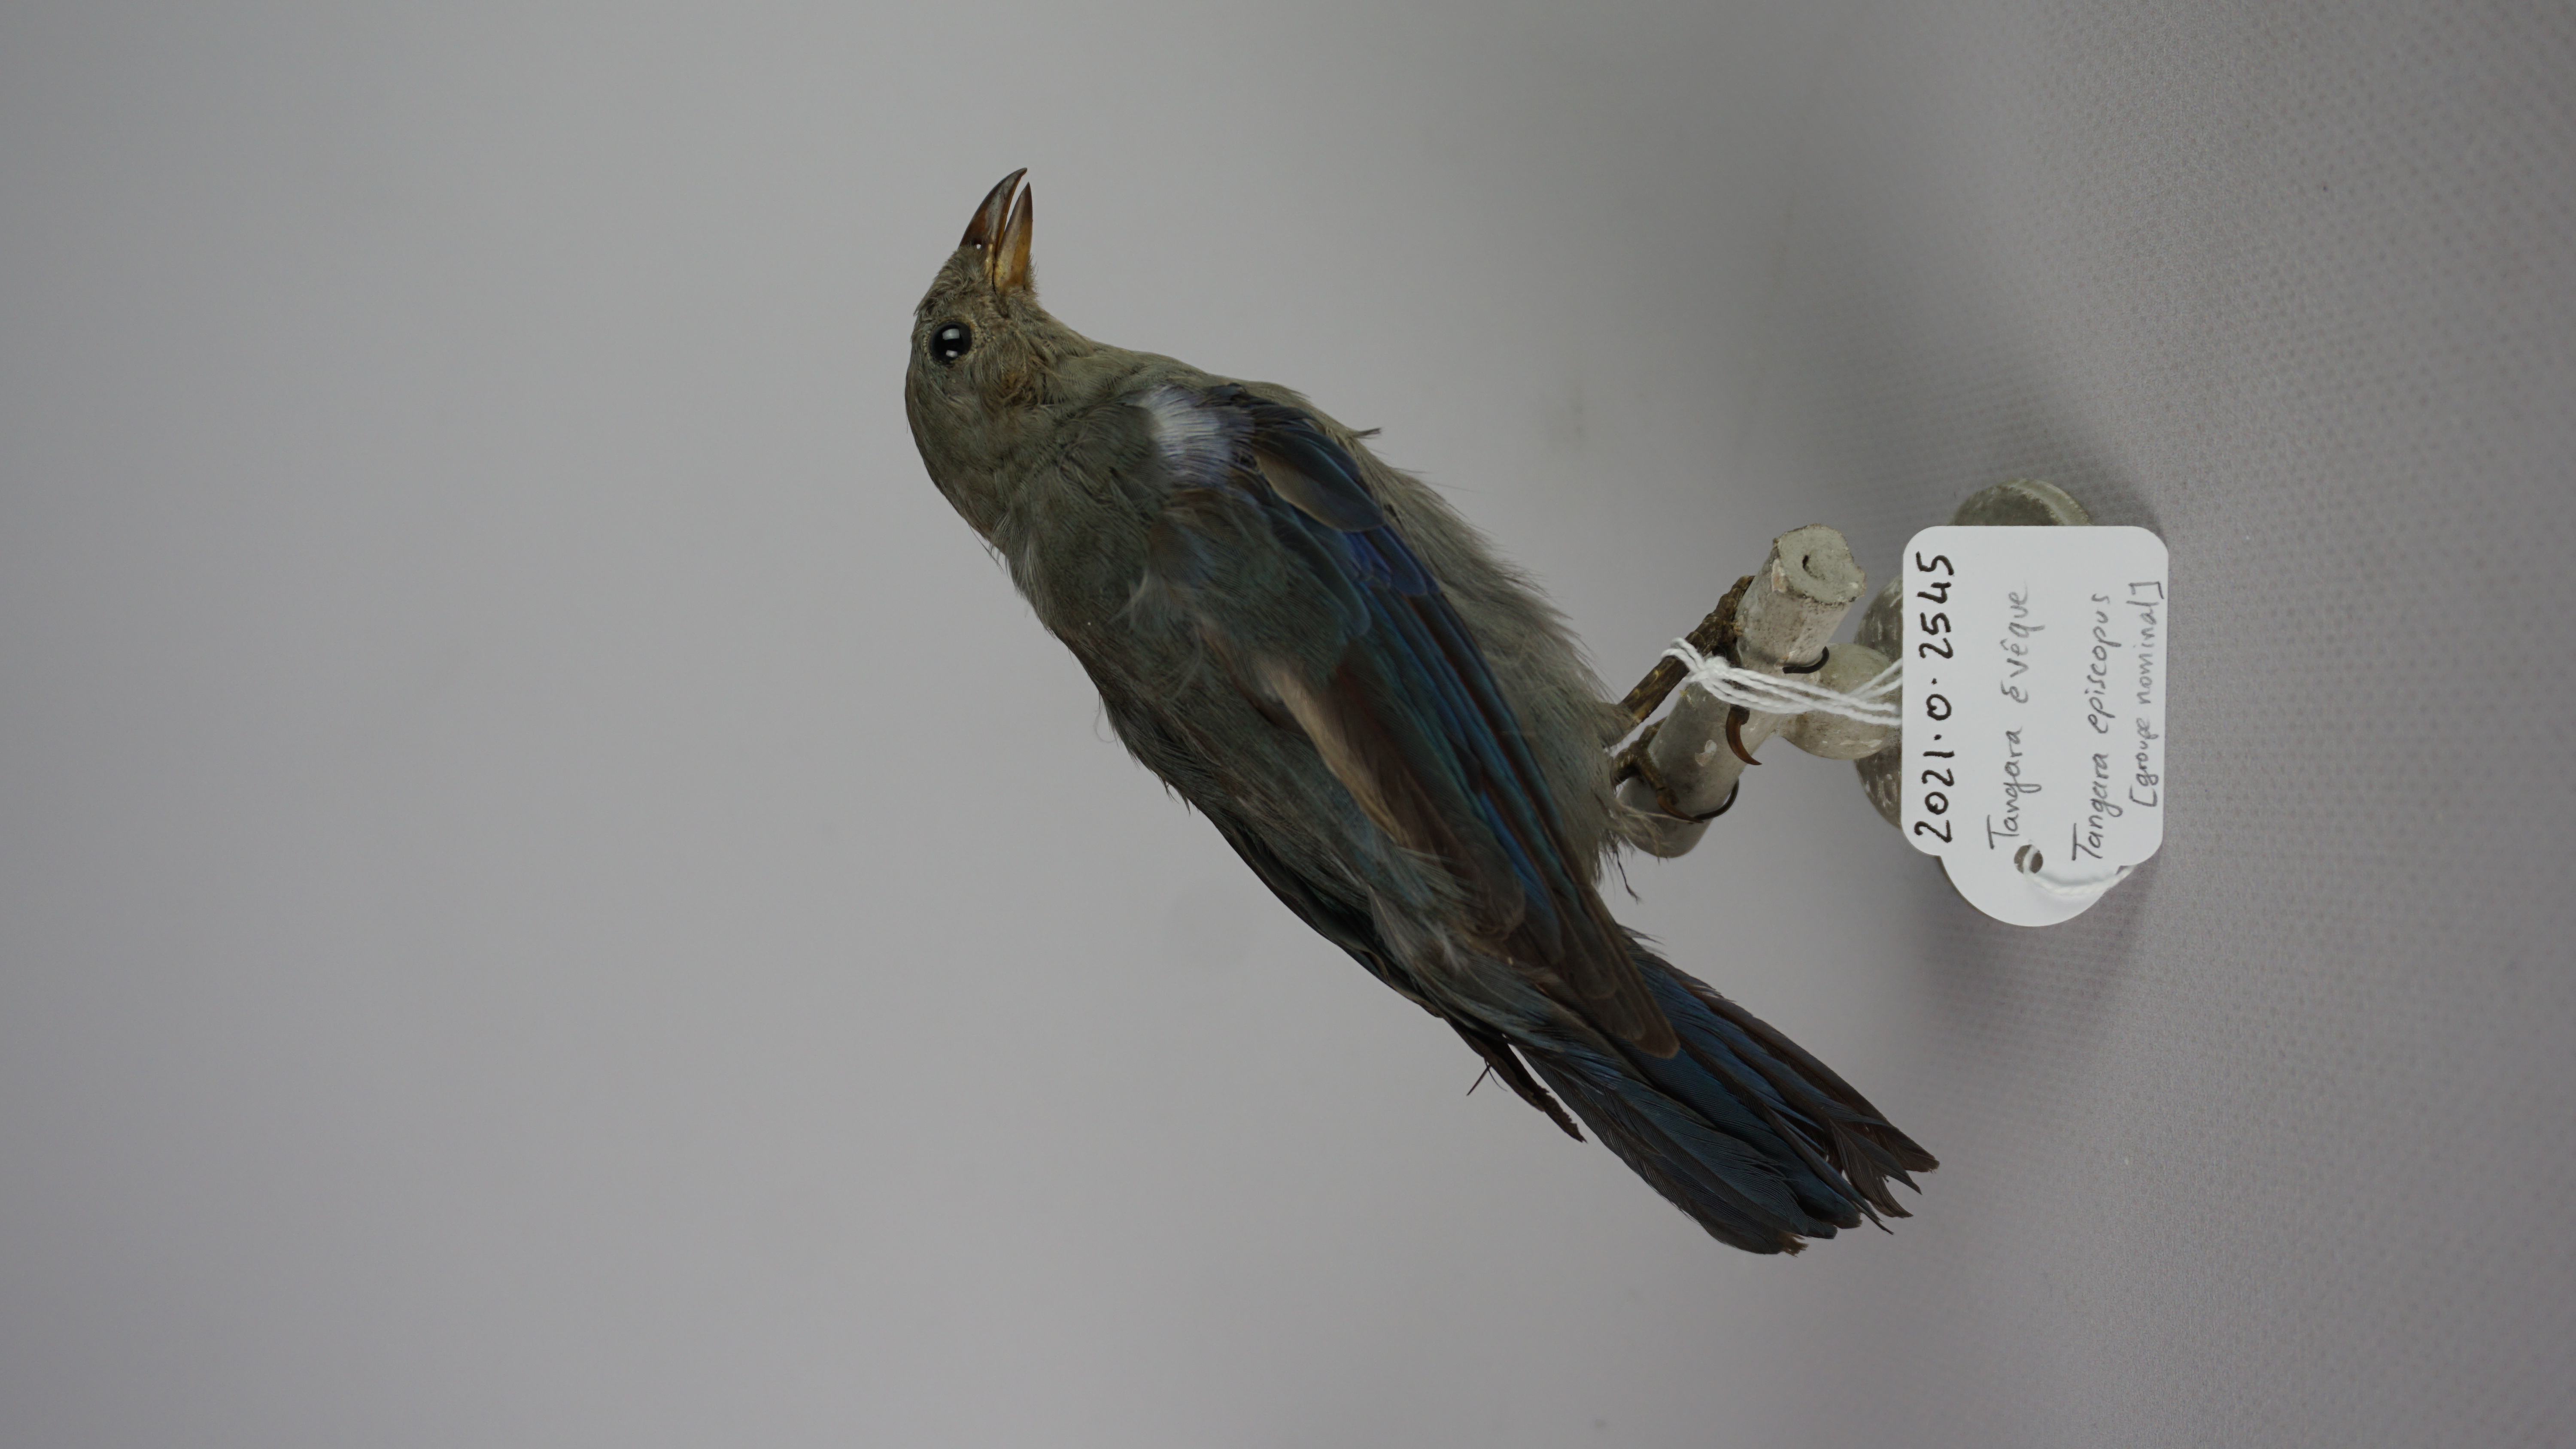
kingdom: Animalia
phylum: Chordata
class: Aves
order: Passeriformes
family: Thraupidae
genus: Thraupis
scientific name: Thraupis episcopus
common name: Blue-grey tanager
